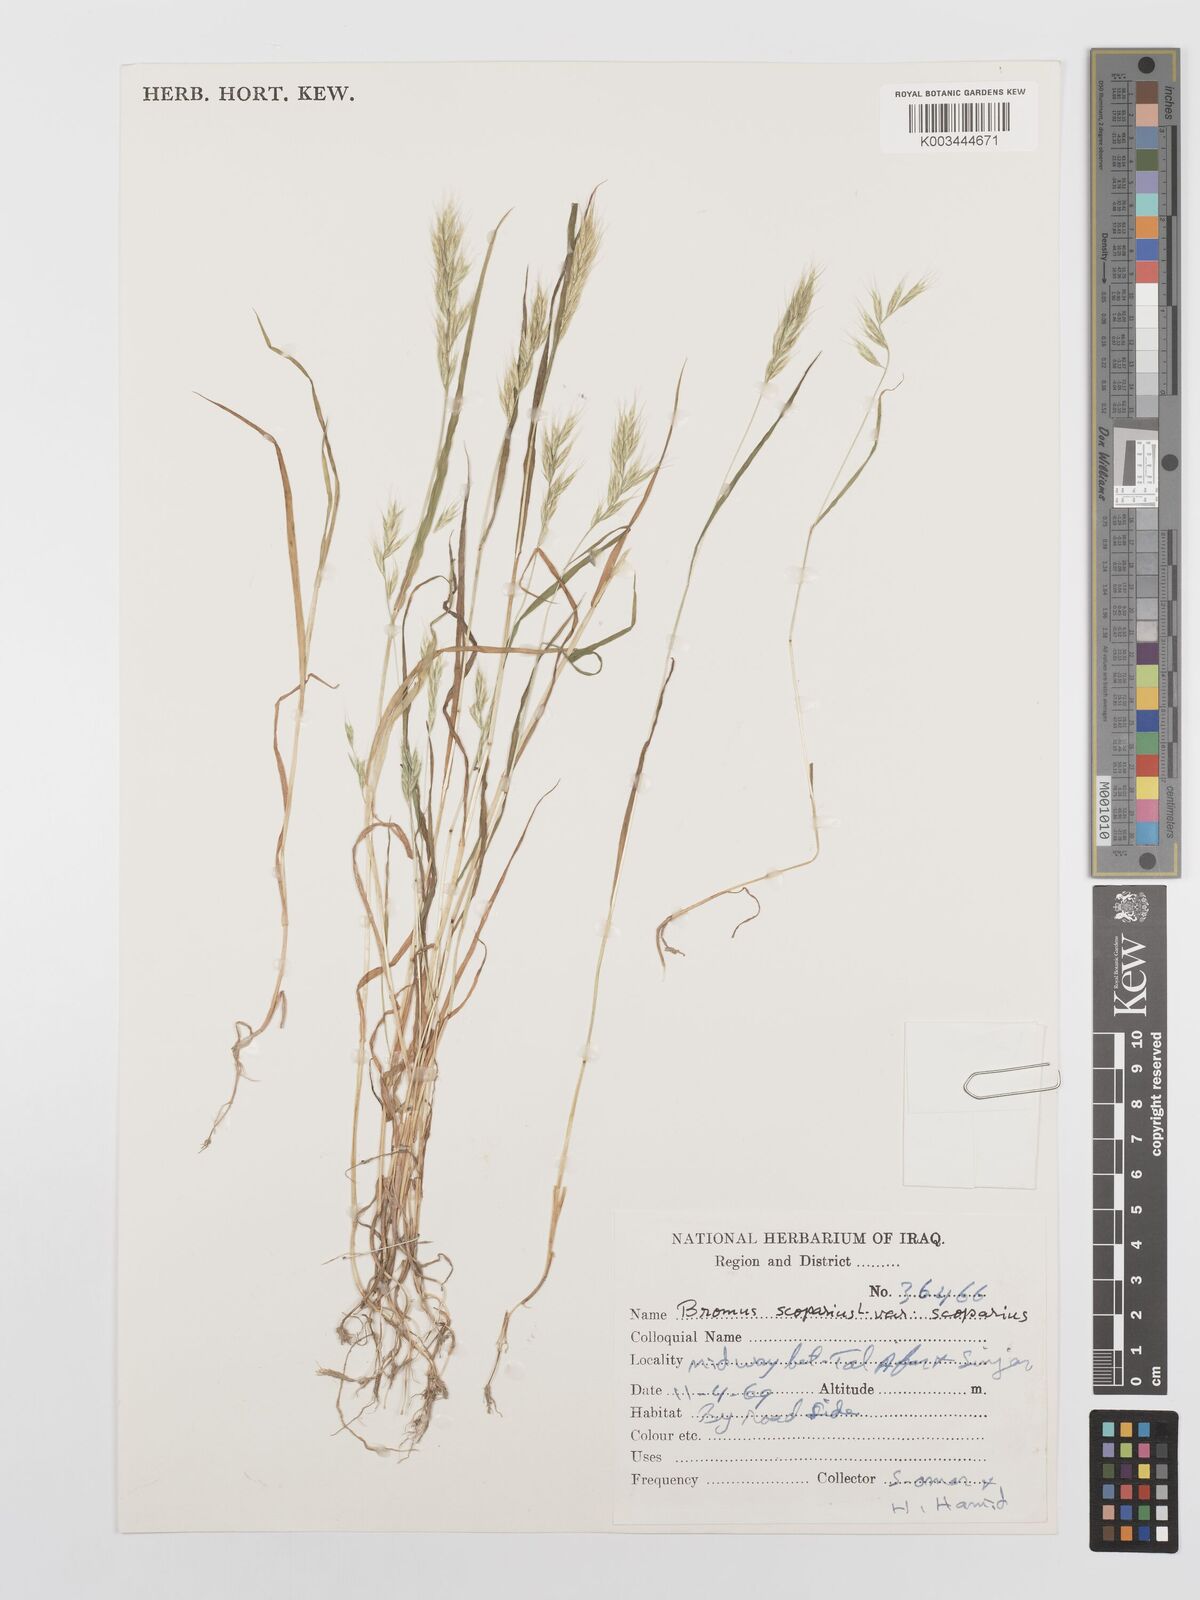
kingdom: Plantae
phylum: Tracheophyta
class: Liliopsida
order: Poales
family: Poaceae
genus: Bromus
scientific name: Bromus scoparius
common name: Broom brome
